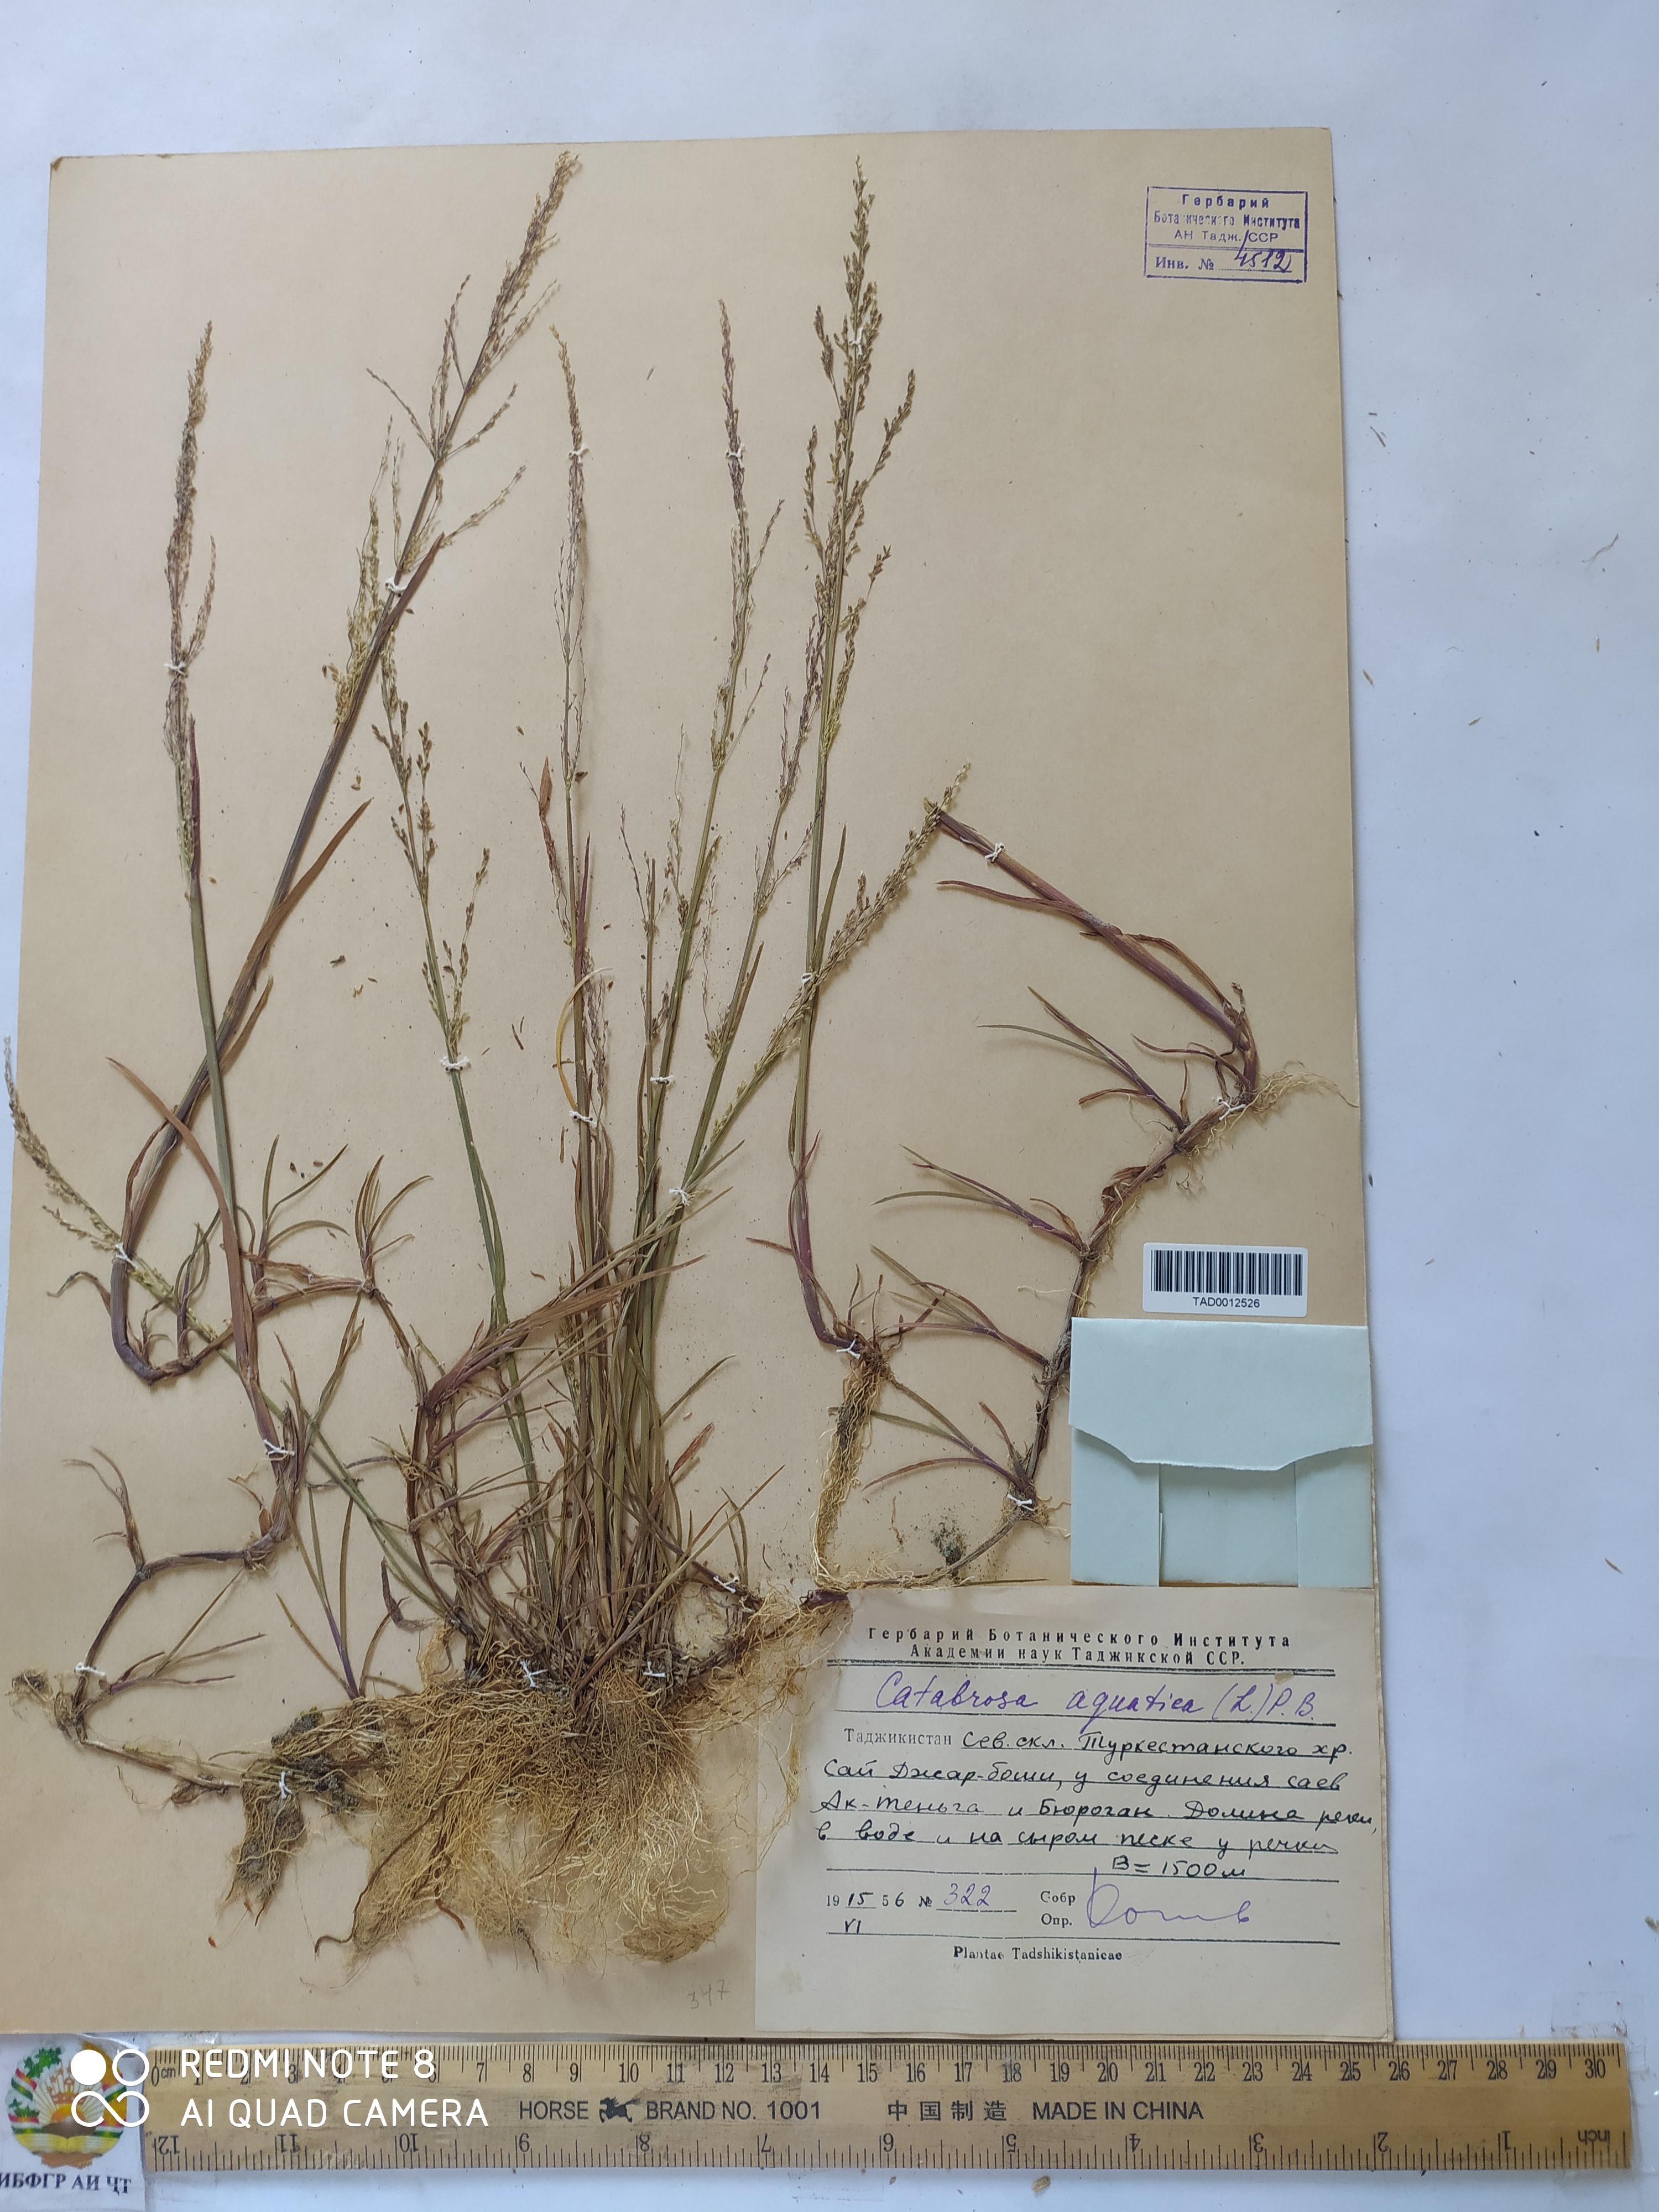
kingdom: Plantae
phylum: Tracheophyta
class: Liliopsida
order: Poales
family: Poaceae
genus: Catabrosa
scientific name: Catabrosa aquatica
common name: Whorl-grass
